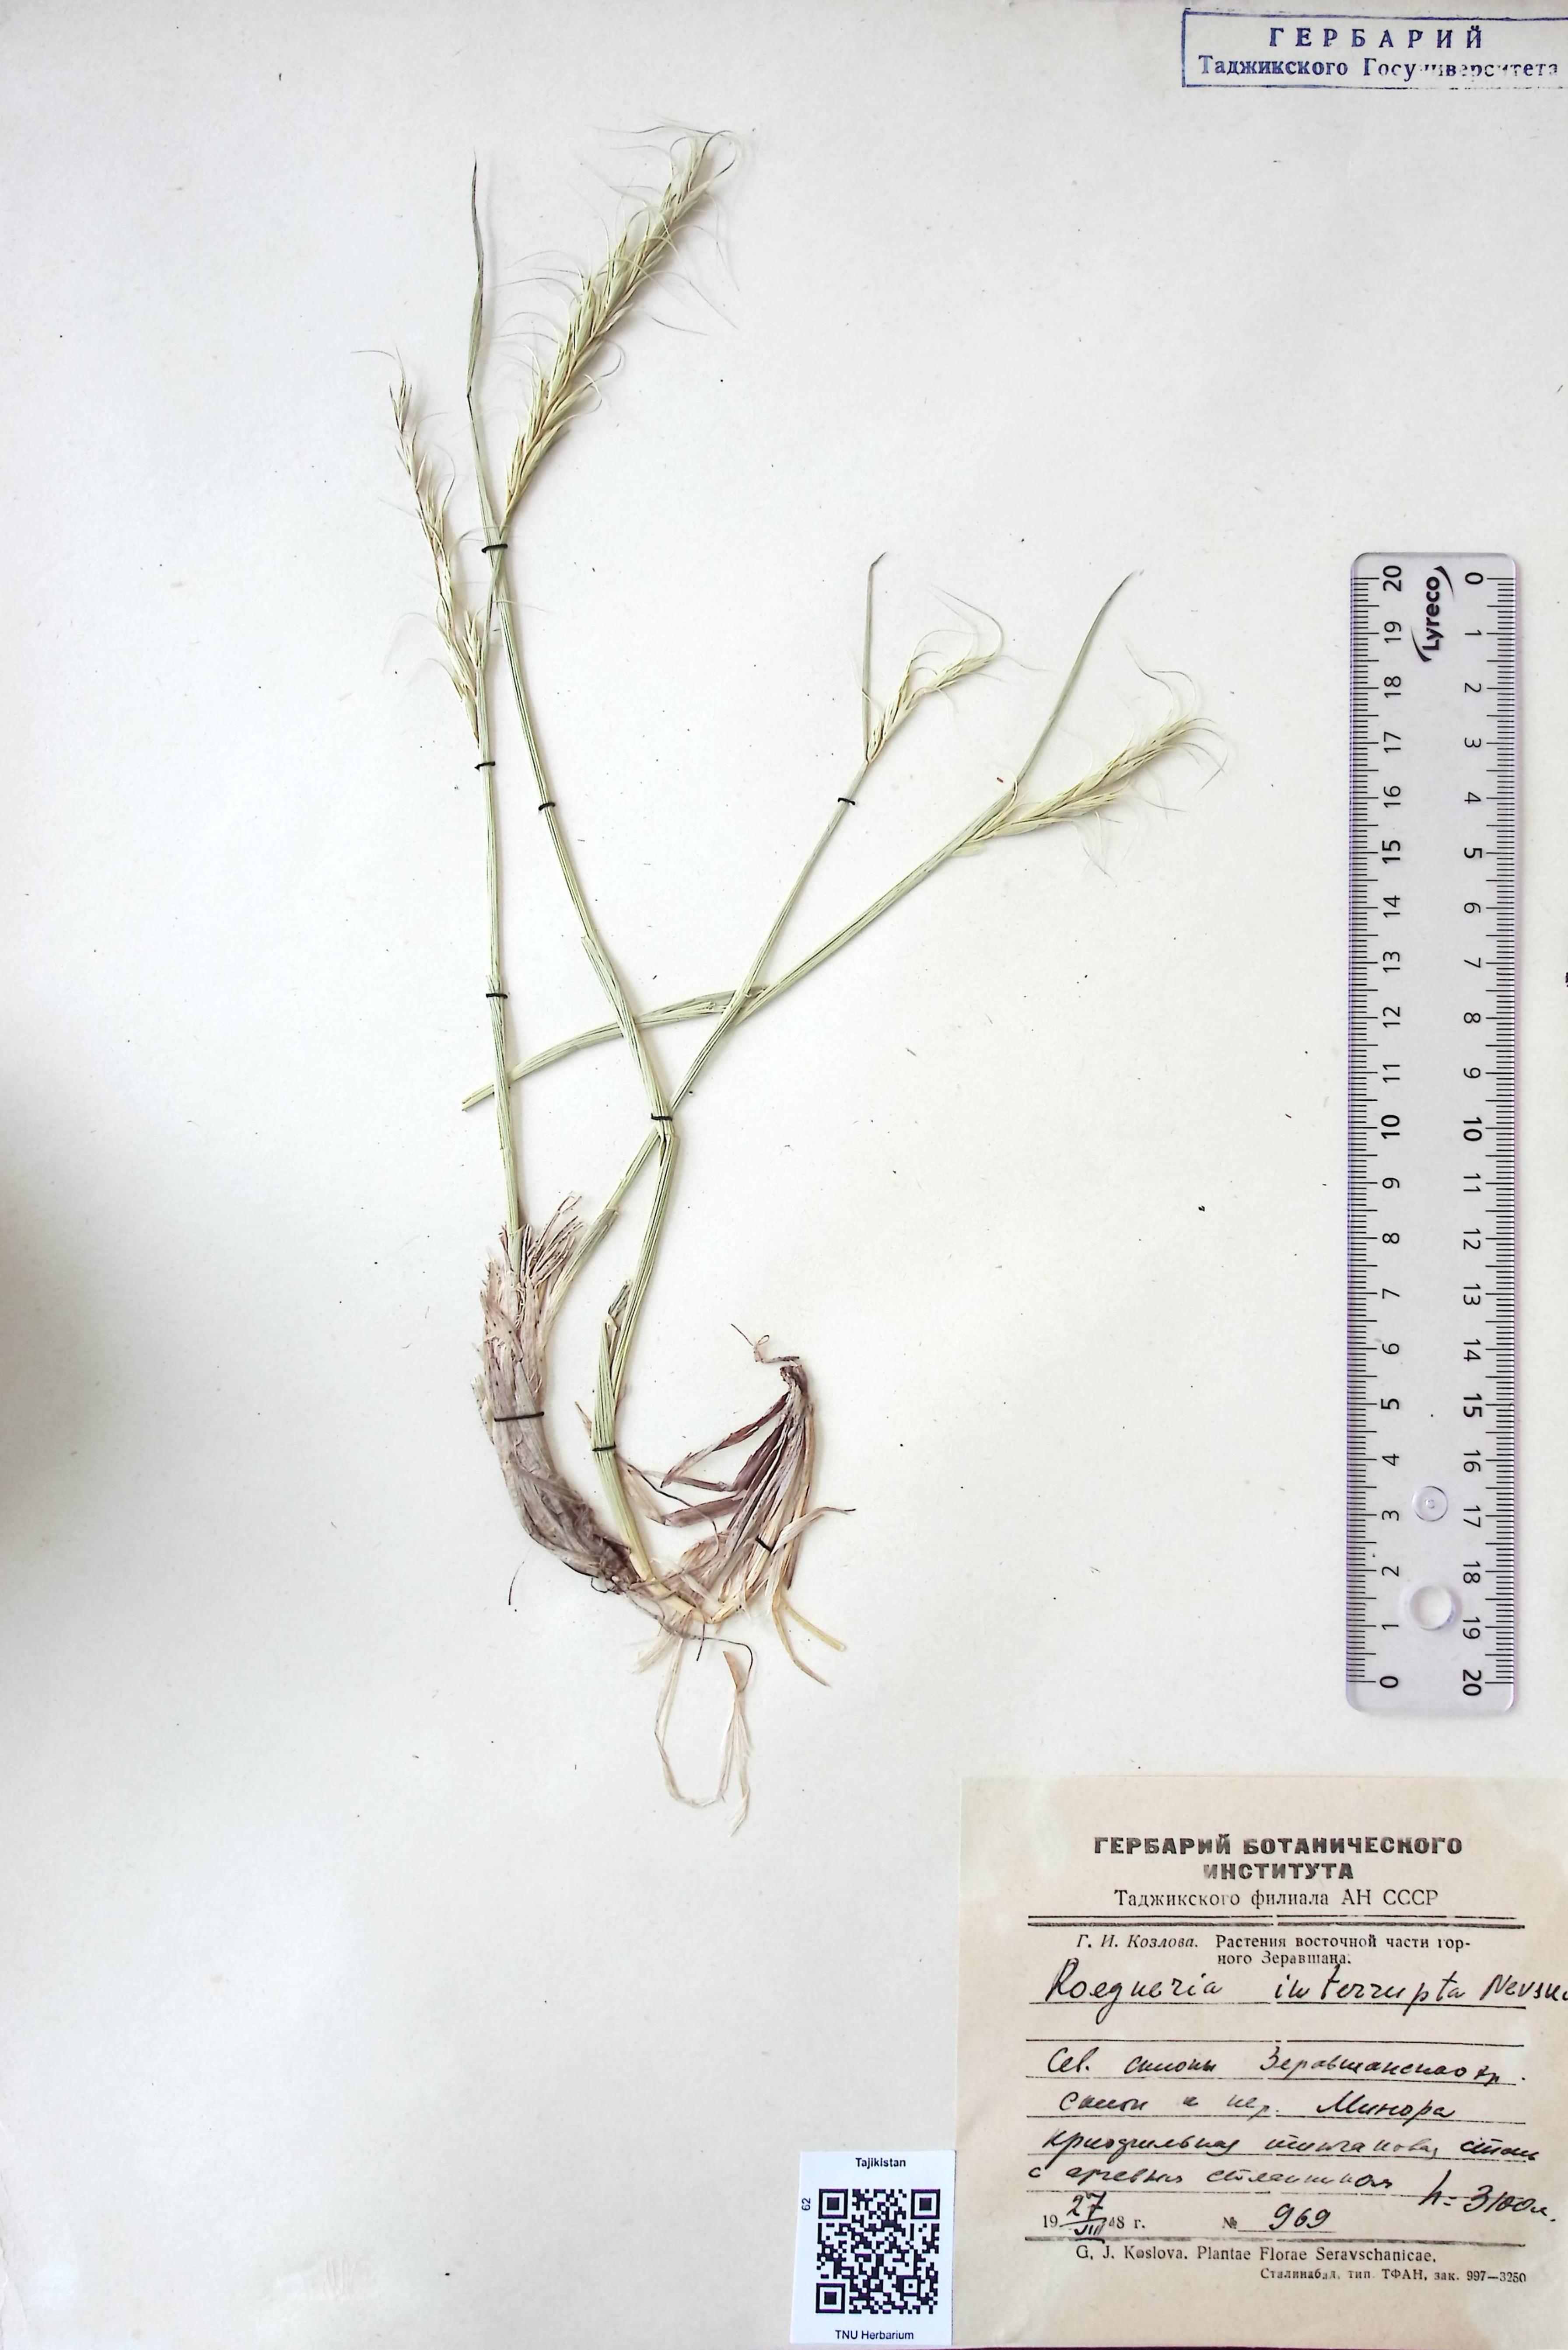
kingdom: Plantae
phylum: Tracheophyta
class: Liliopsida
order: Poales
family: Poaceae
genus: Roegeria
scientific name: Roegeria
